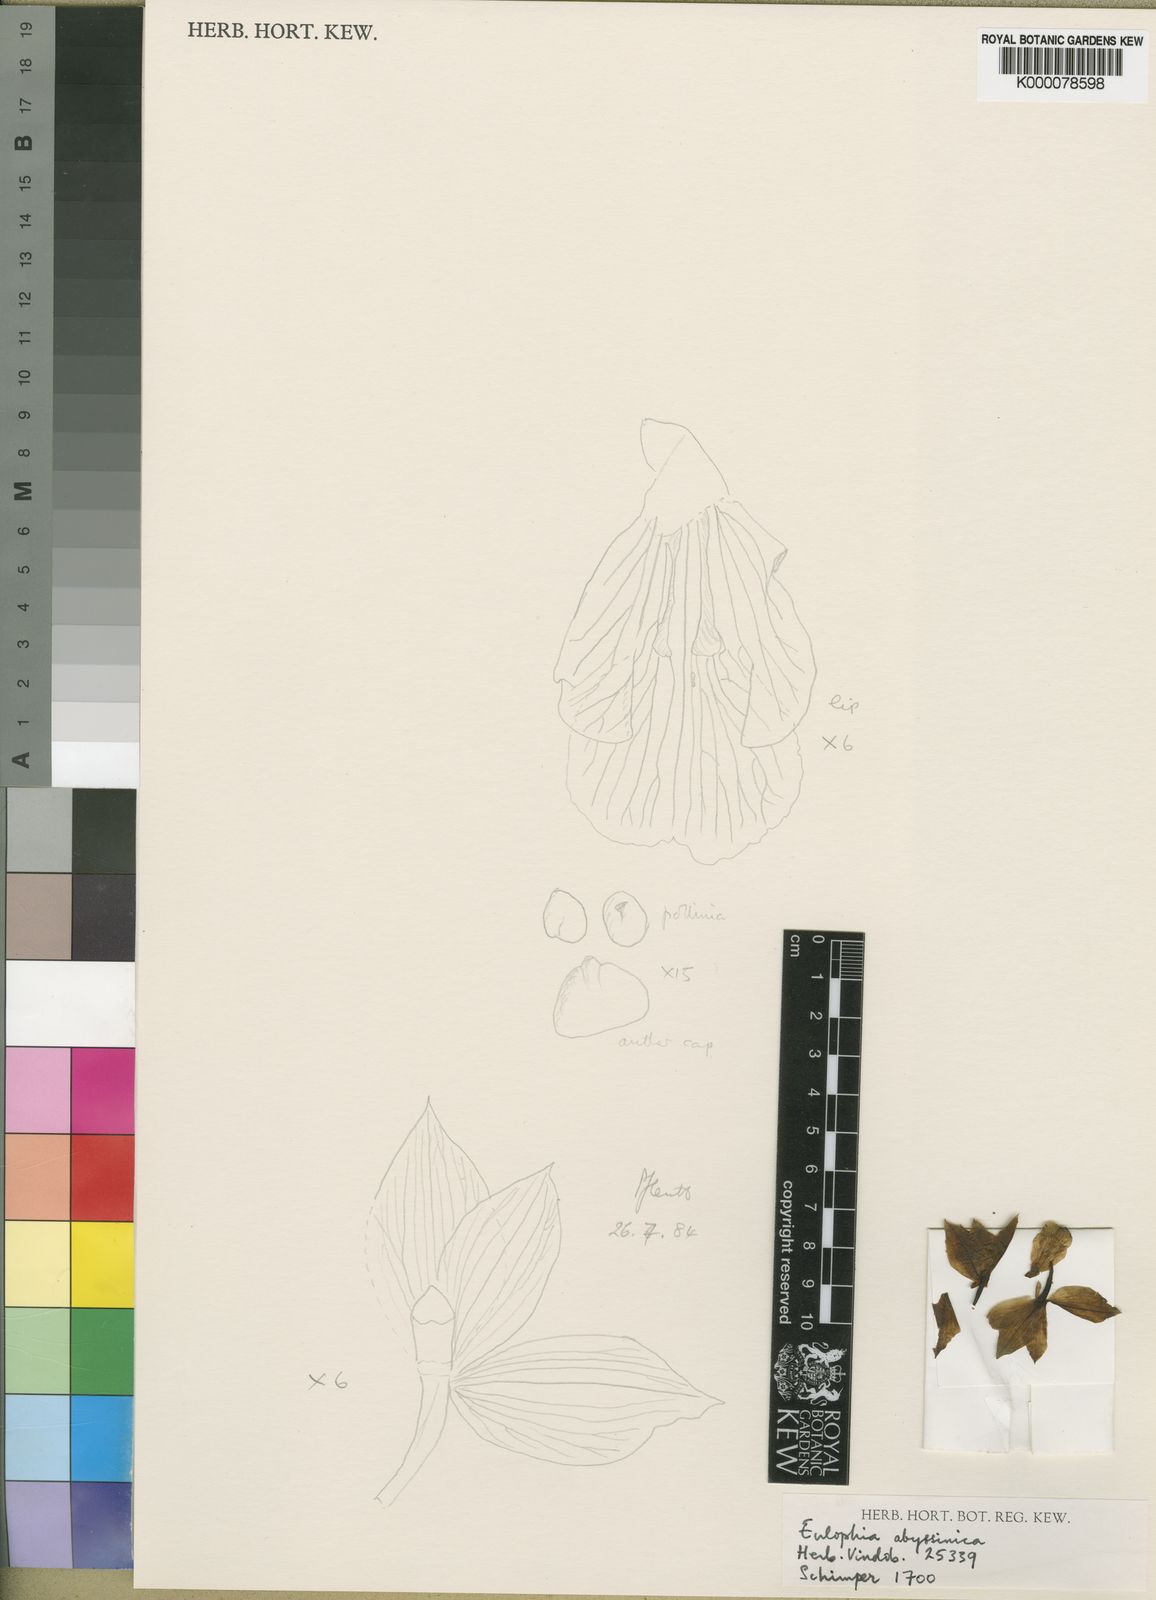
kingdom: Plantae
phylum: Tracheophyta
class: Liliopsida
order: Asparagales
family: Orchidaceae
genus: Eulophia
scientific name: Eulophia abyssinica
